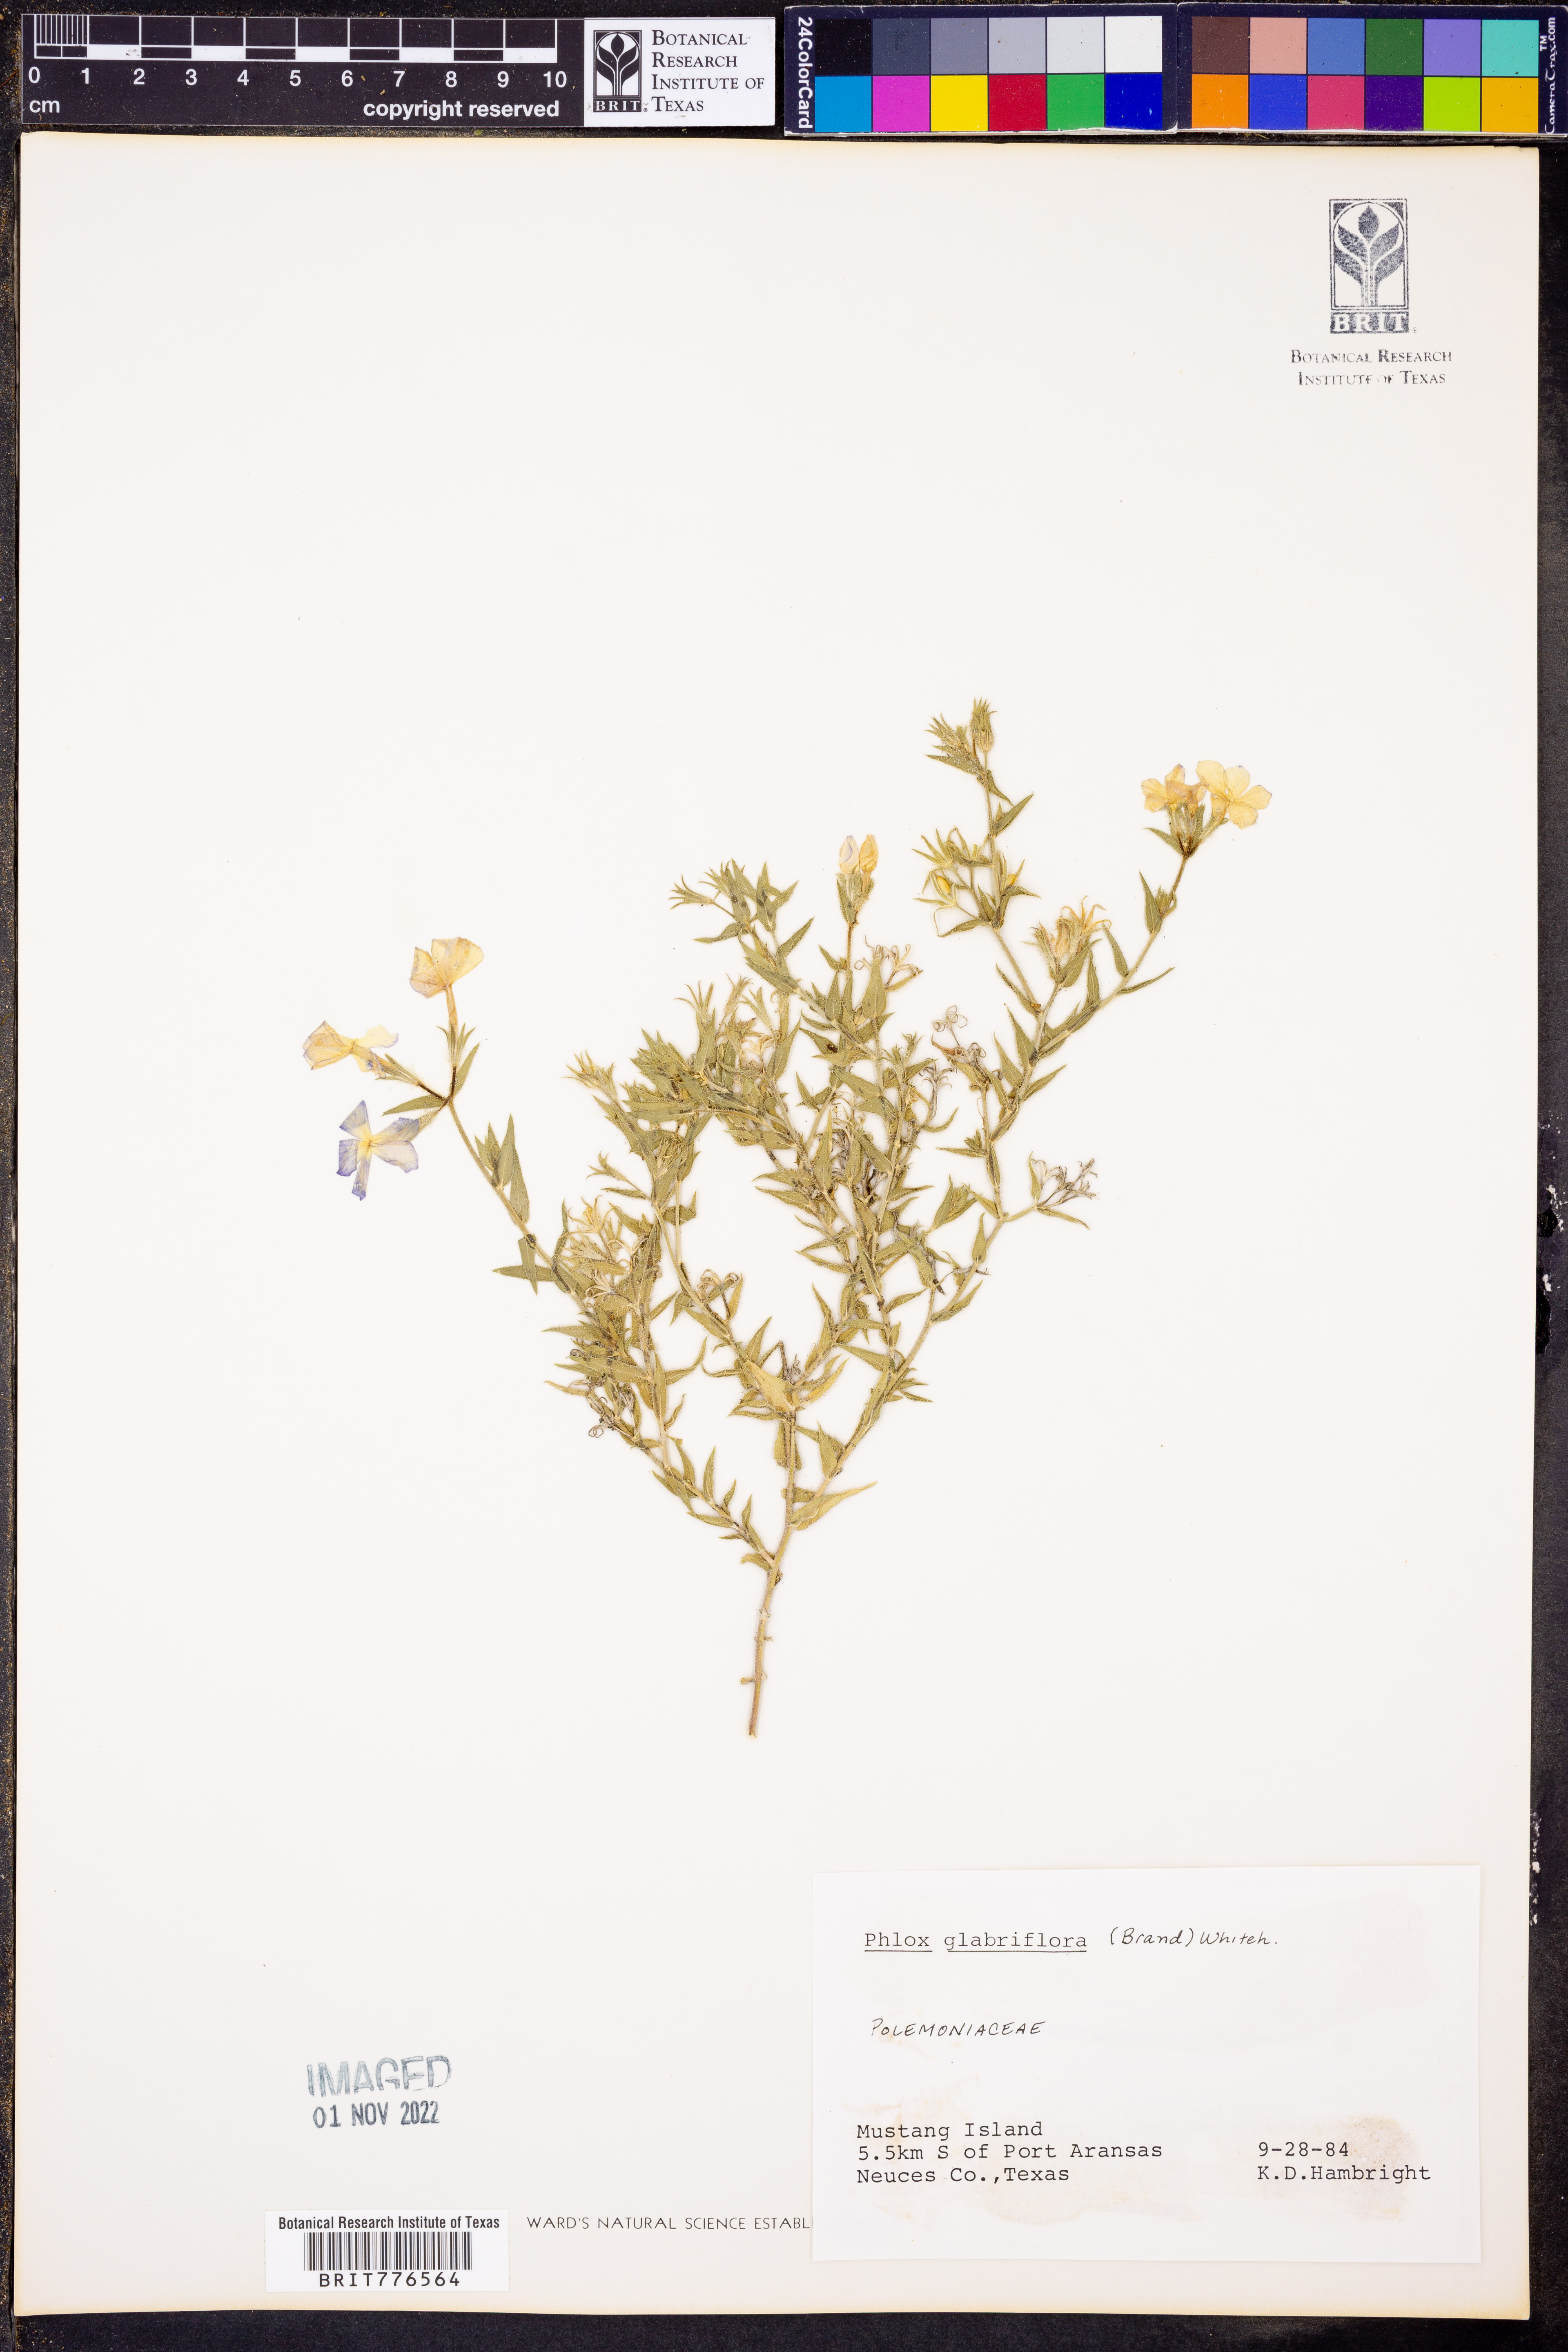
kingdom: Plantae
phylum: Tracheophyta
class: Magnoliopsida
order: Ericales
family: Polemoniaceae
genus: Phlox
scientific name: Phlox glabriflora
